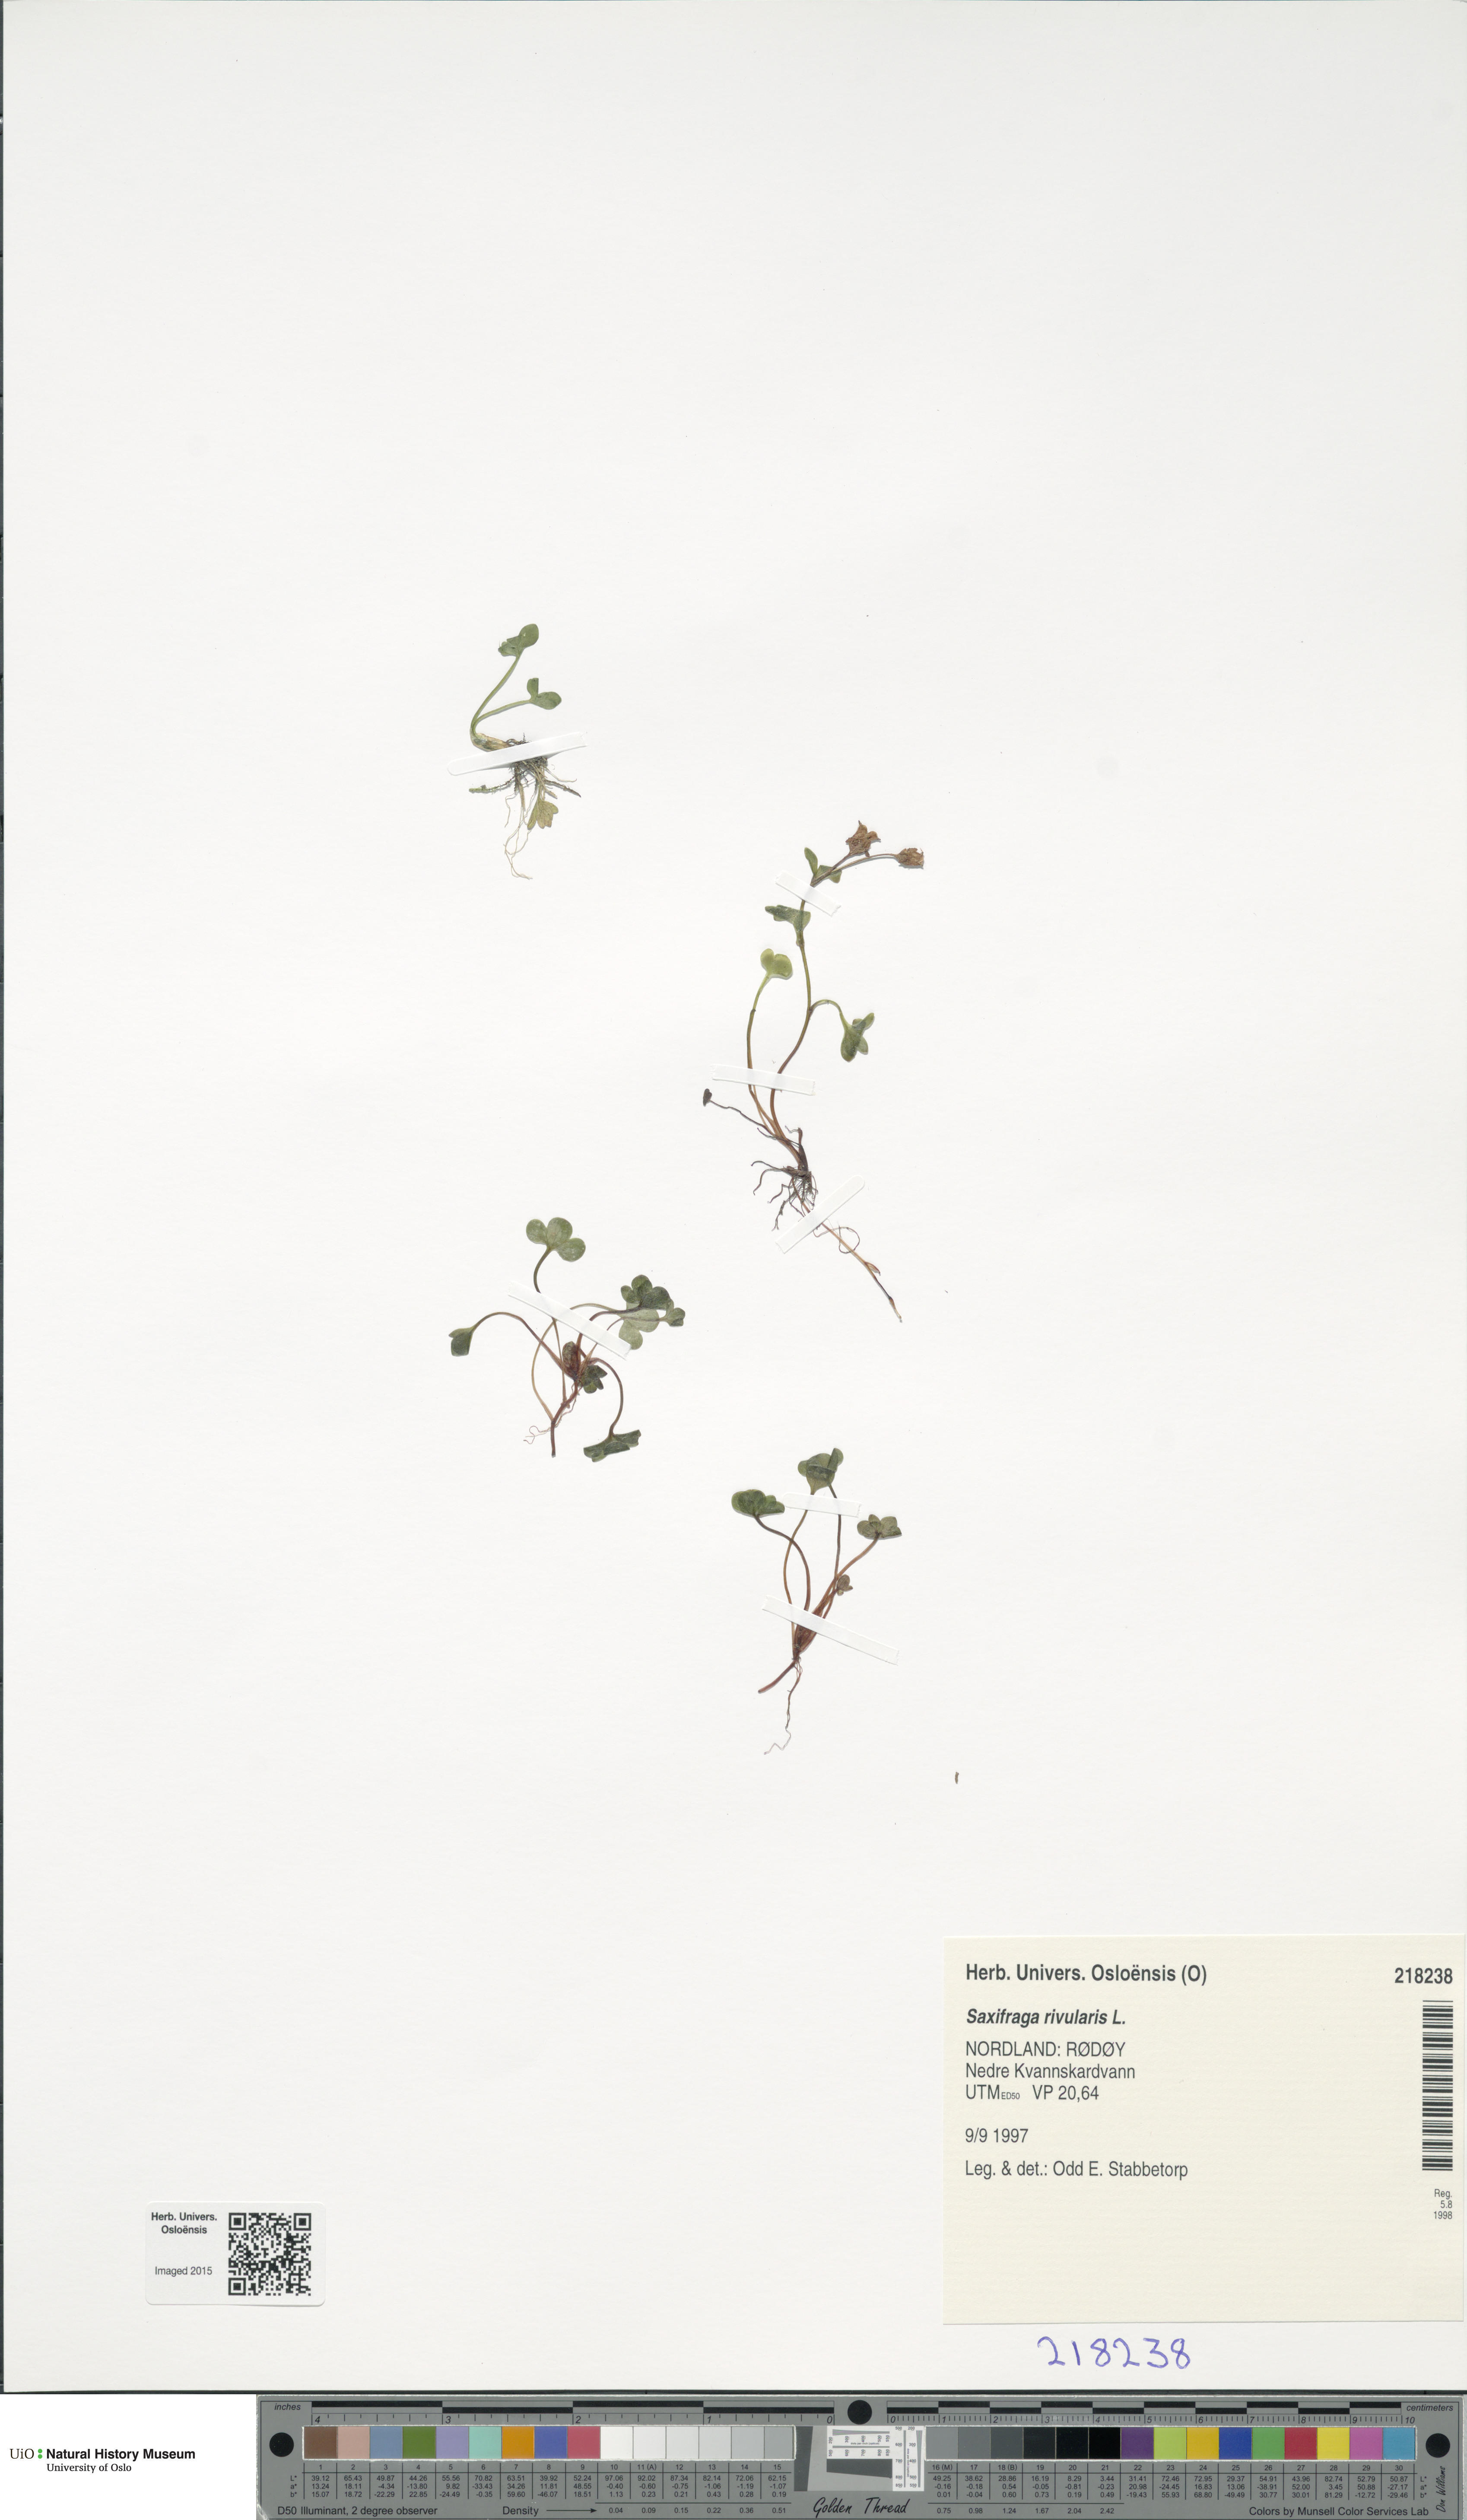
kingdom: Plantae
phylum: Tracheophyta
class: Magnoliopsida
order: Saxifragales
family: Saxifragaceae
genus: Saxifraga
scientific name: Saxifraga rivularis
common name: Highland saxifrage
